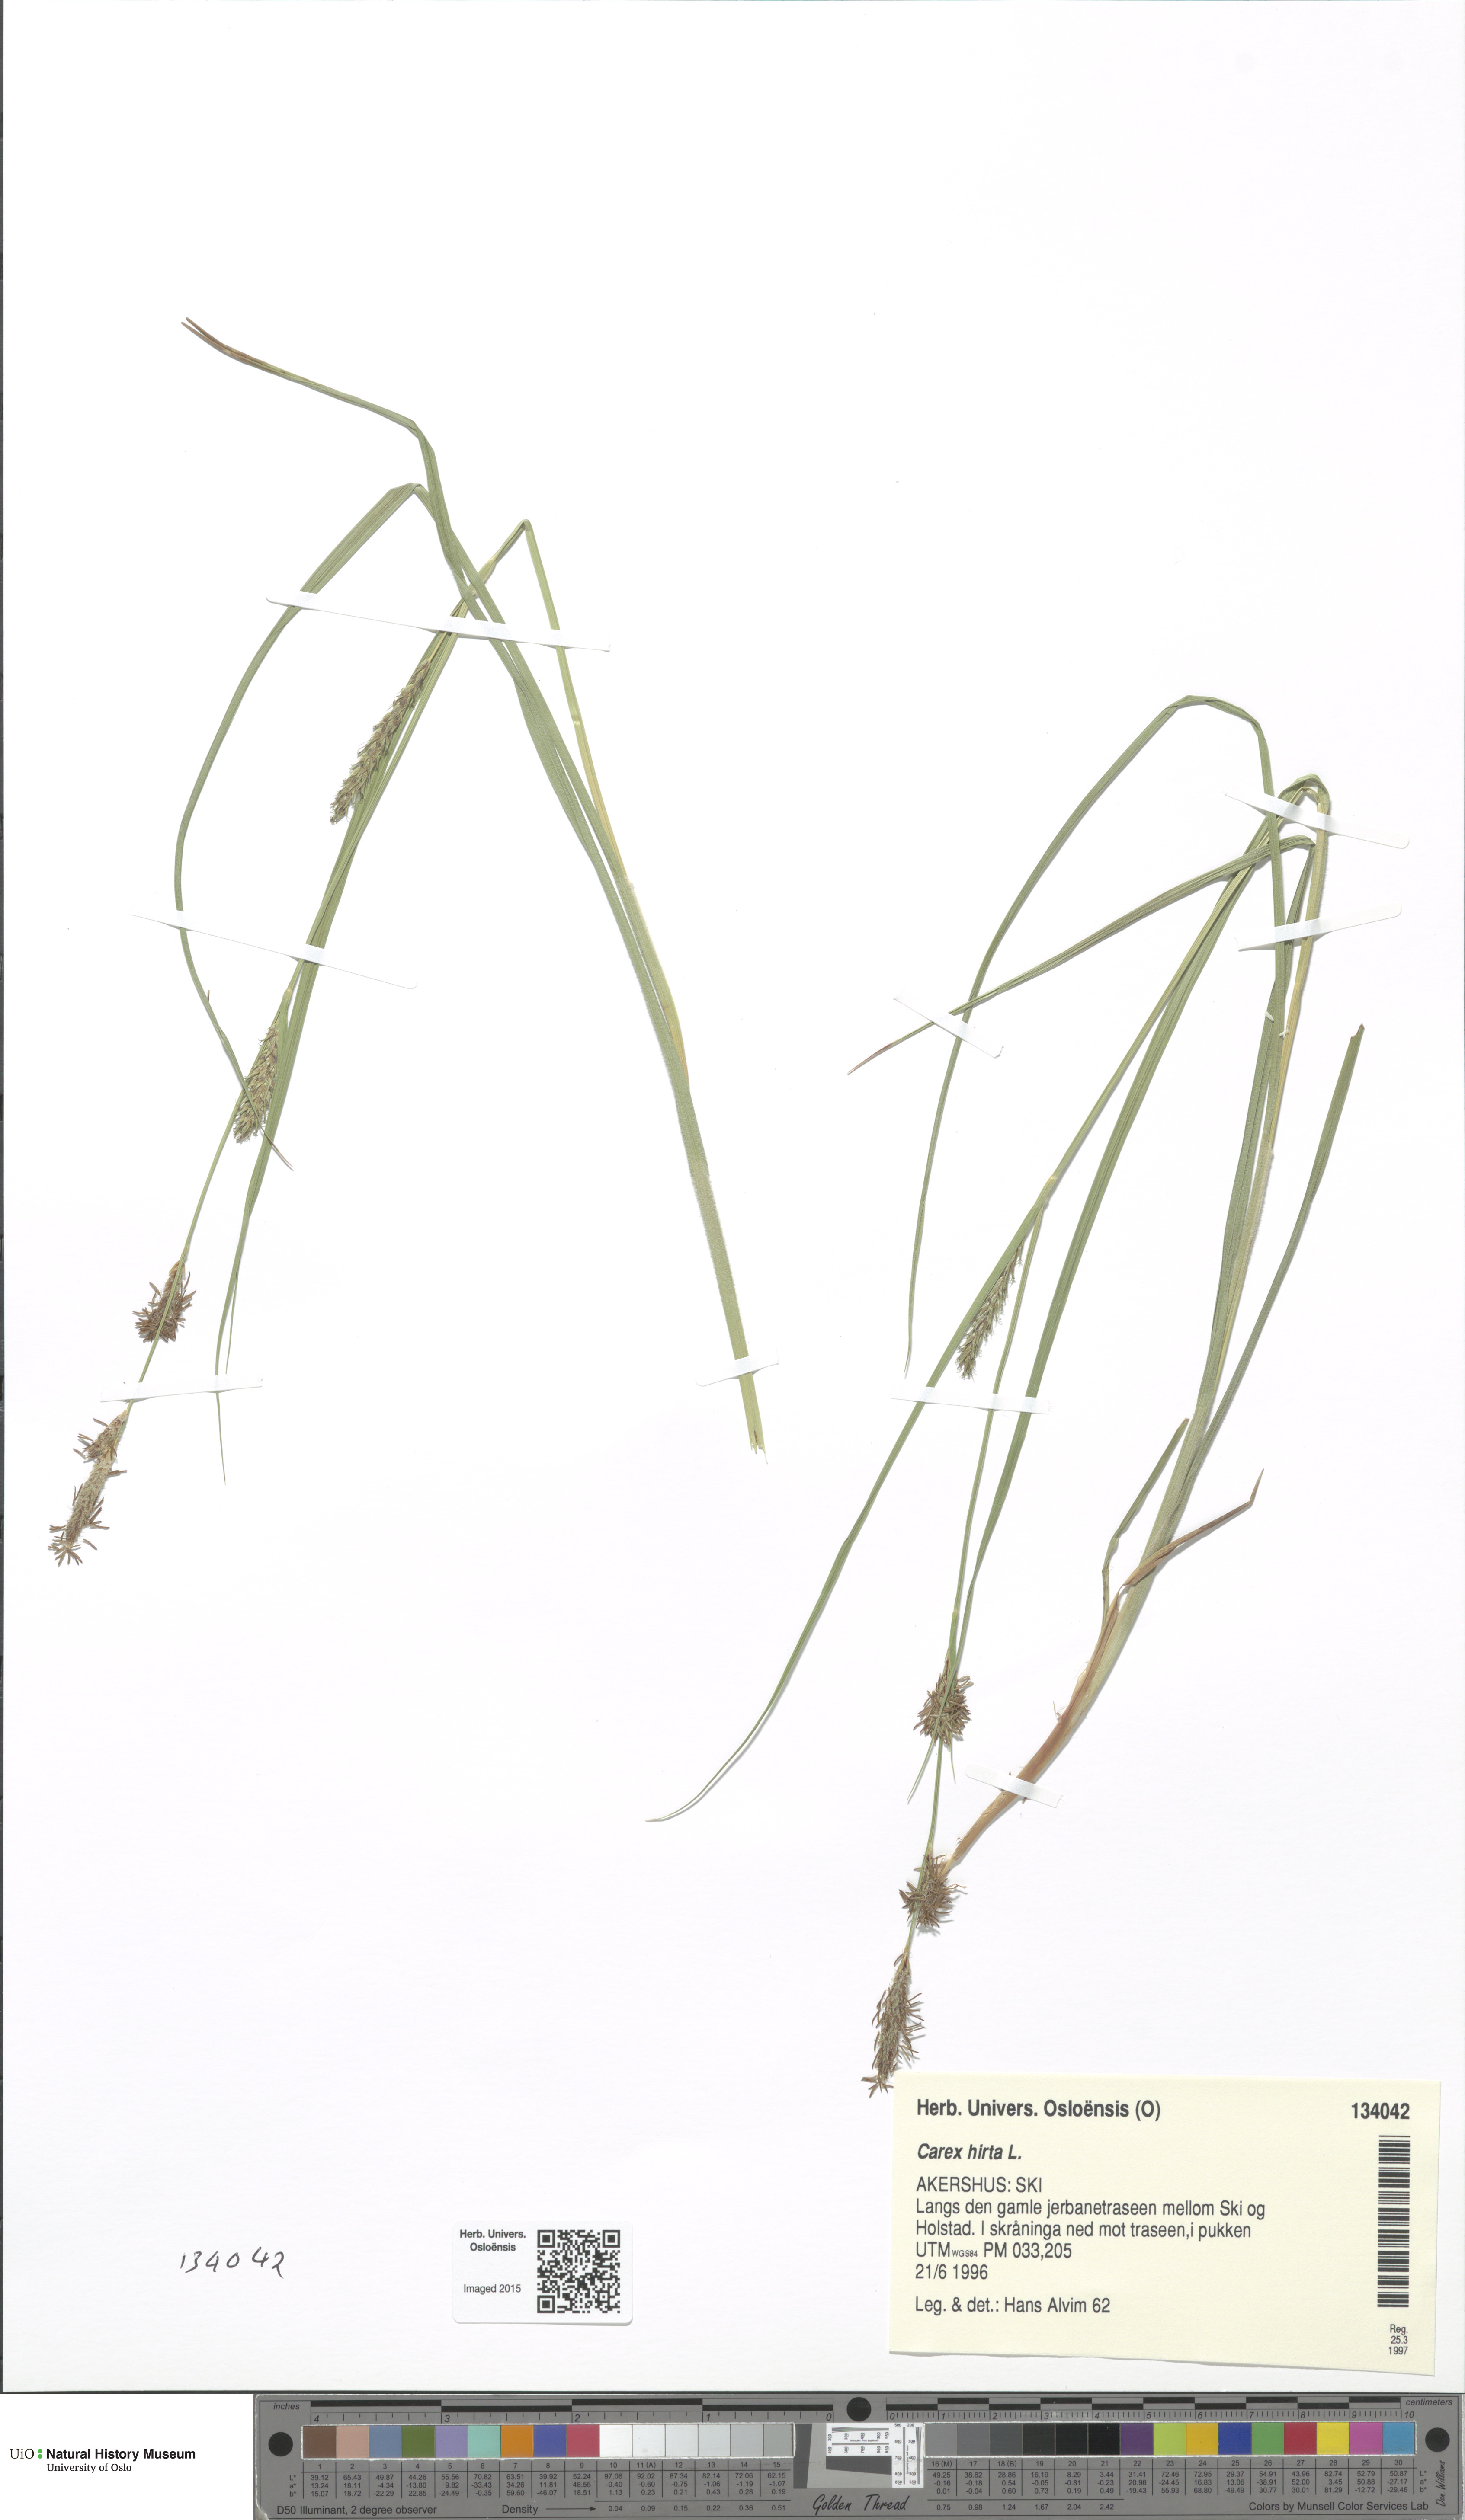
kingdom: Plantae
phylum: Tracheophyta
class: Liliopsida
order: Poales
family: Cyperaceae
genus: Carex
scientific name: Carex hirta
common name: Hairy sedge
